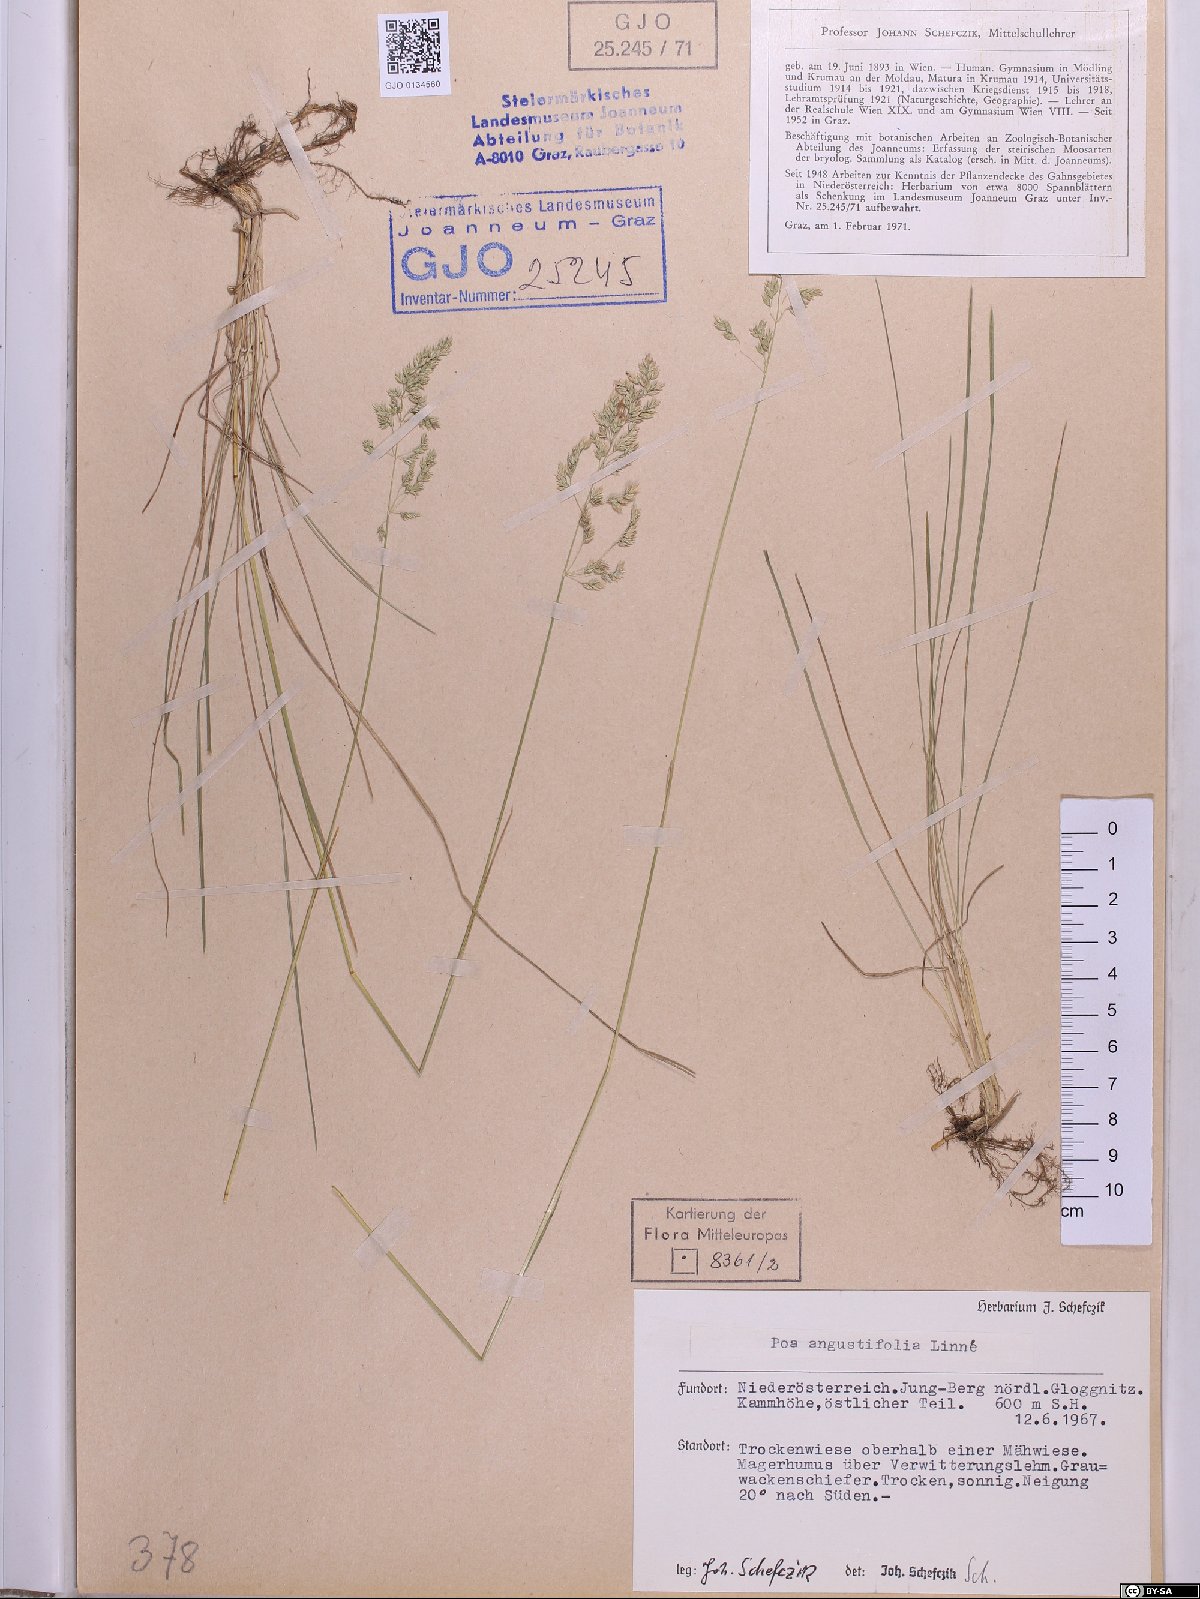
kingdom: Plantae
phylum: Tracheophyta
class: Liliopsida
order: Poales
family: Poaceae
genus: Poa
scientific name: Poa angustifolia
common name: Narrow-leaved meadow-grass
